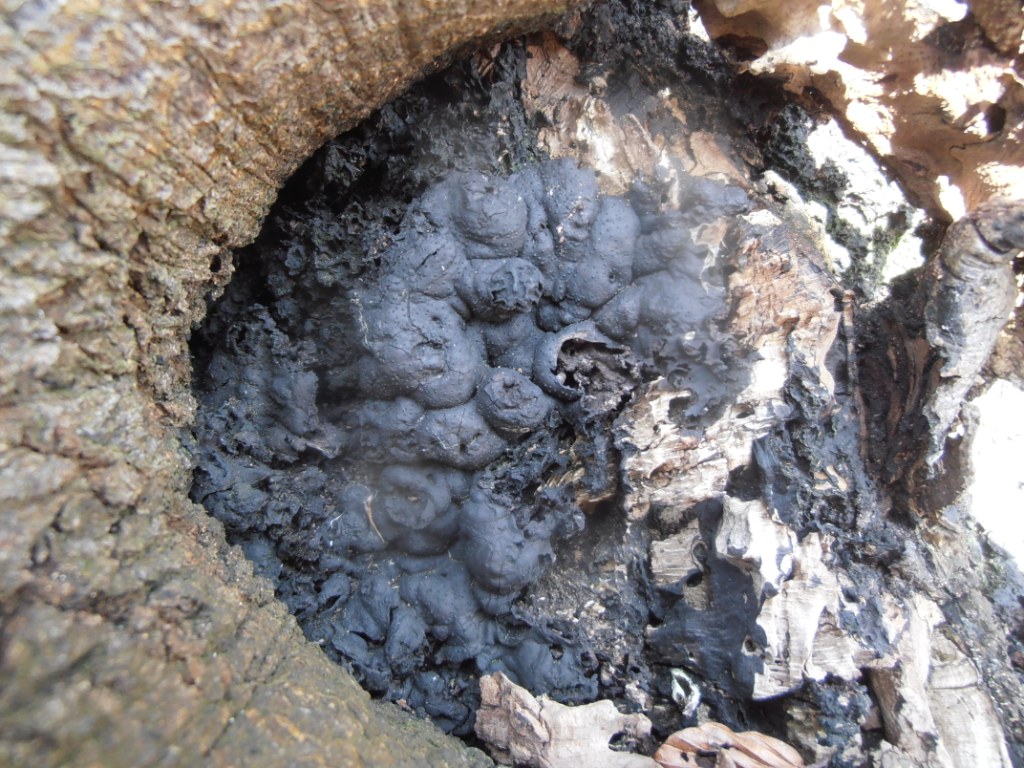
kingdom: Fungi
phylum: Ascomycota
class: Sordariomycetes
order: Xylariales
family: Xylariaceae
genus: Kretzschmaria
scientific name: Kretzschmaria deusta
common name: stor kulsvamp
